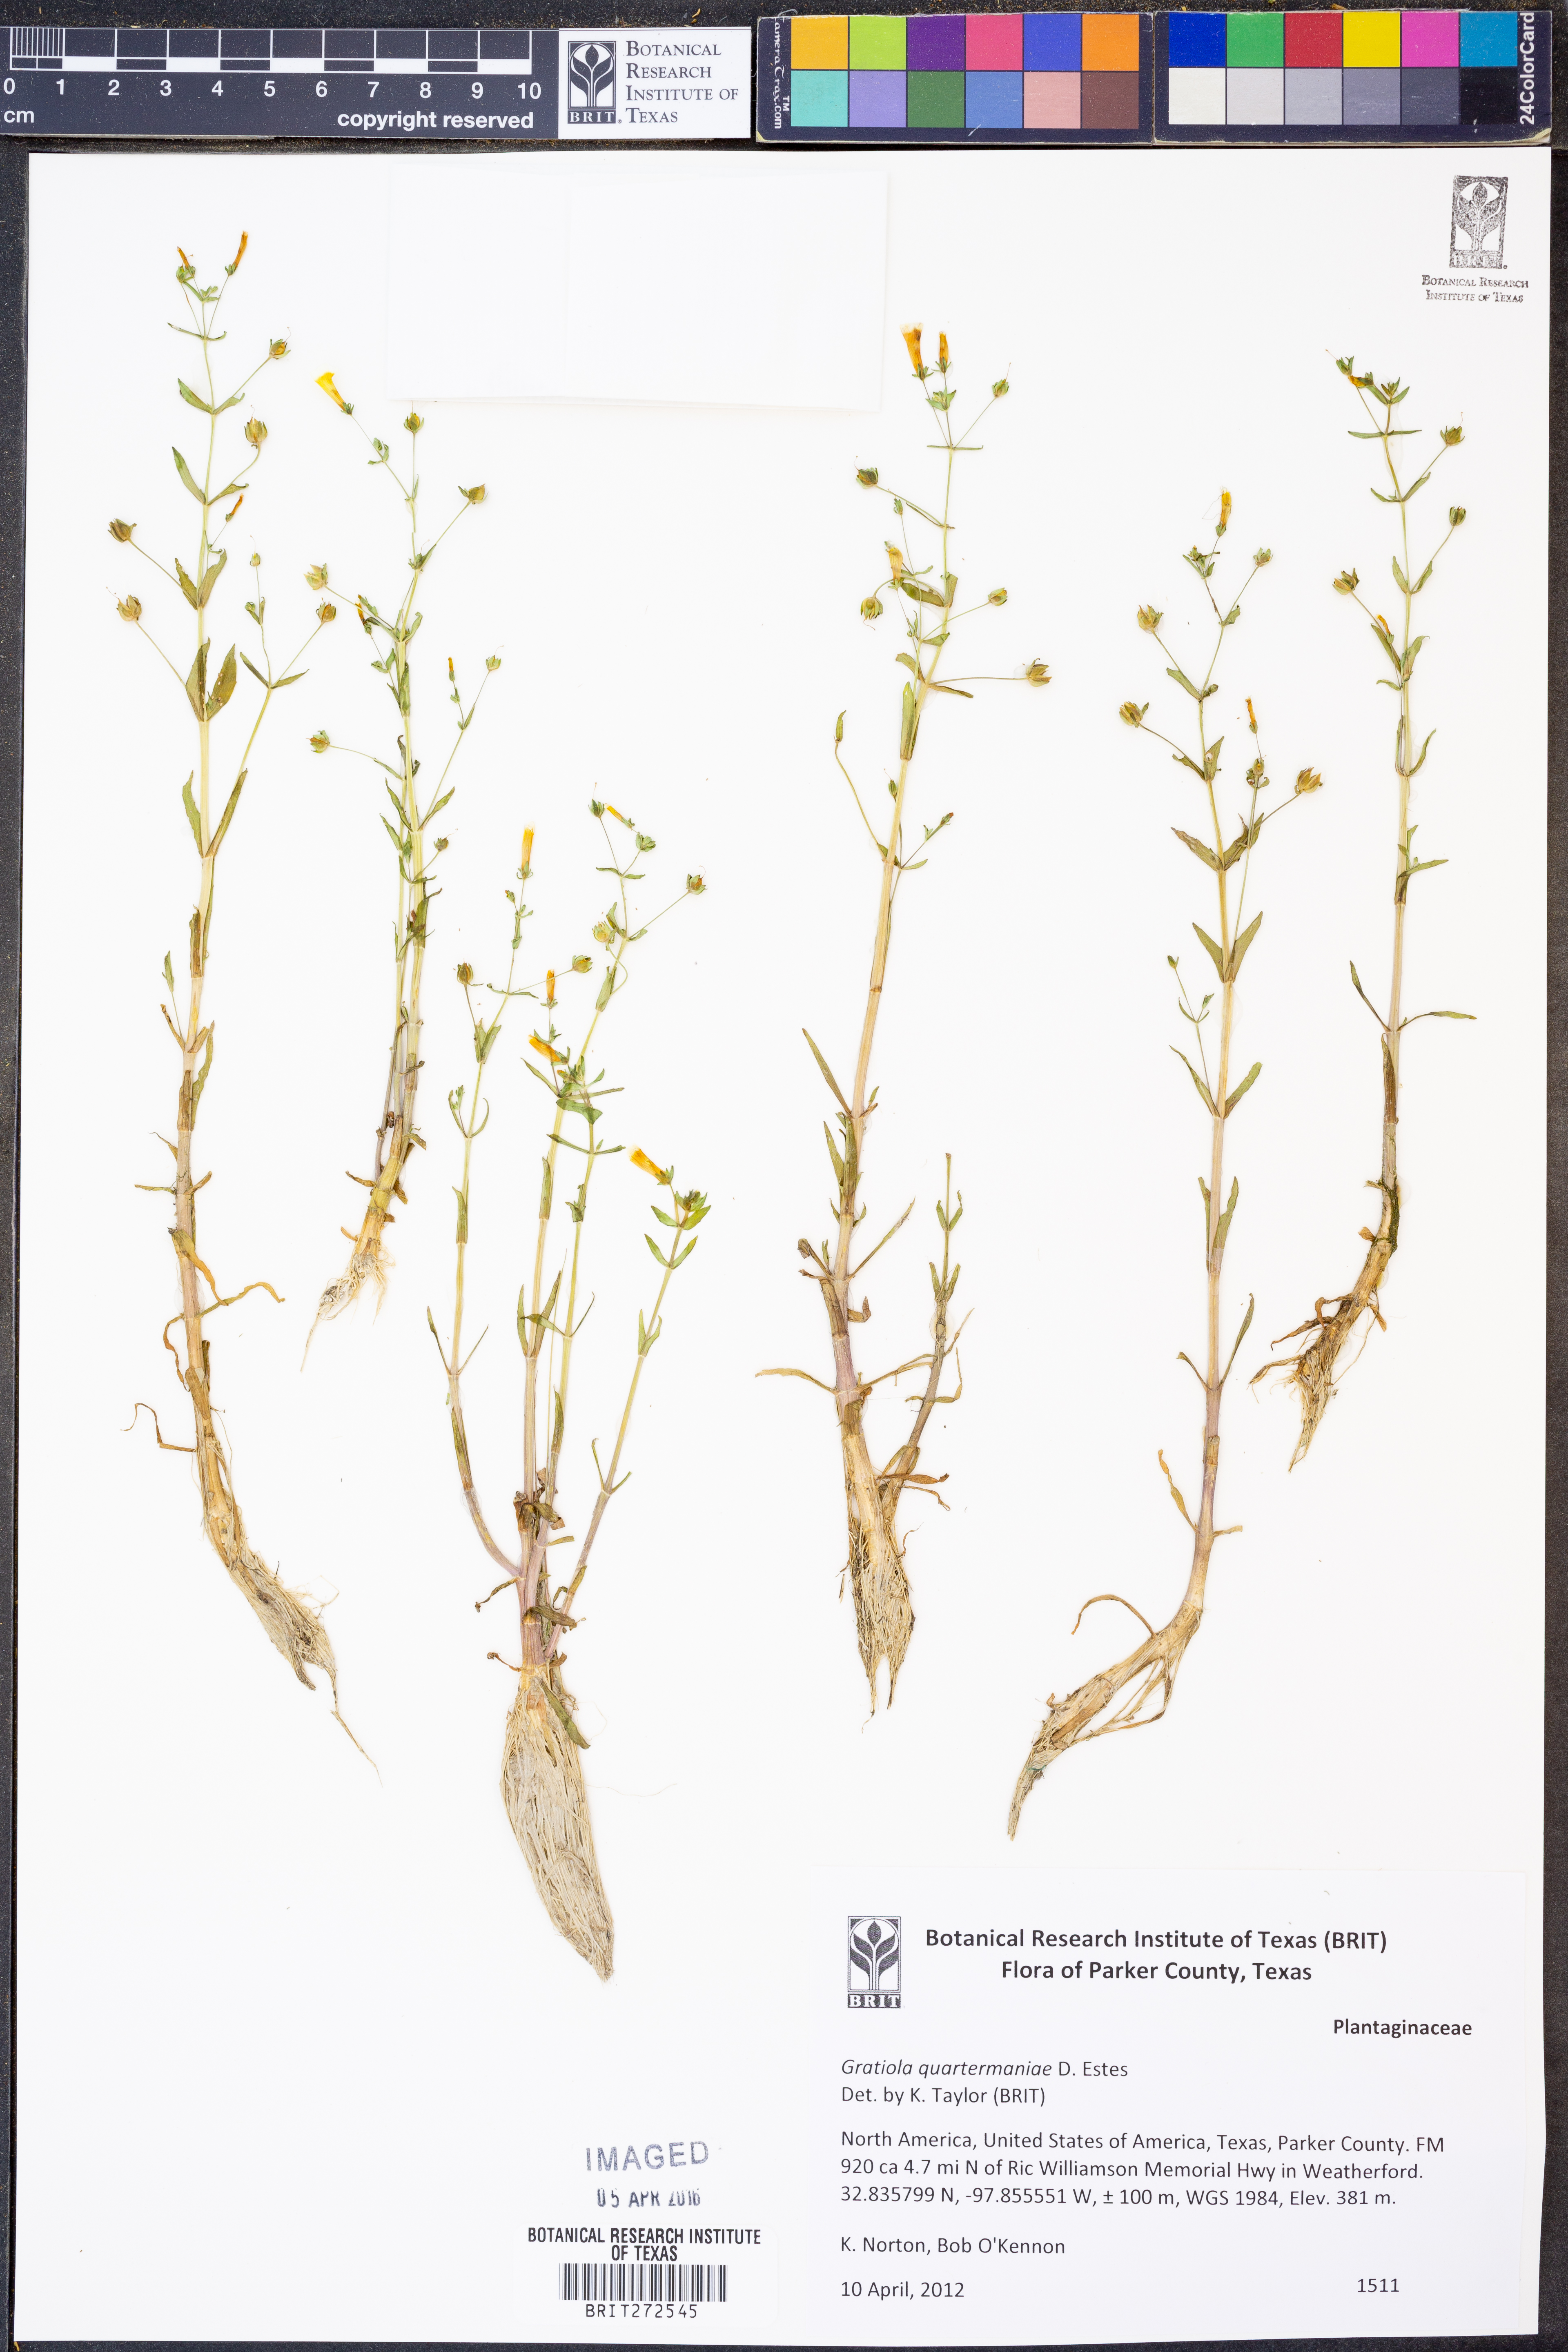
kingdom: Plantae
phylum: Tracheophyta
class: Magnoliopsida
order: Lamiales
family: Plantaginaceae
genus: Gratiola
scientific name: Gratiola quartermaniae
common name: Quarterman's hedge-hyssop
